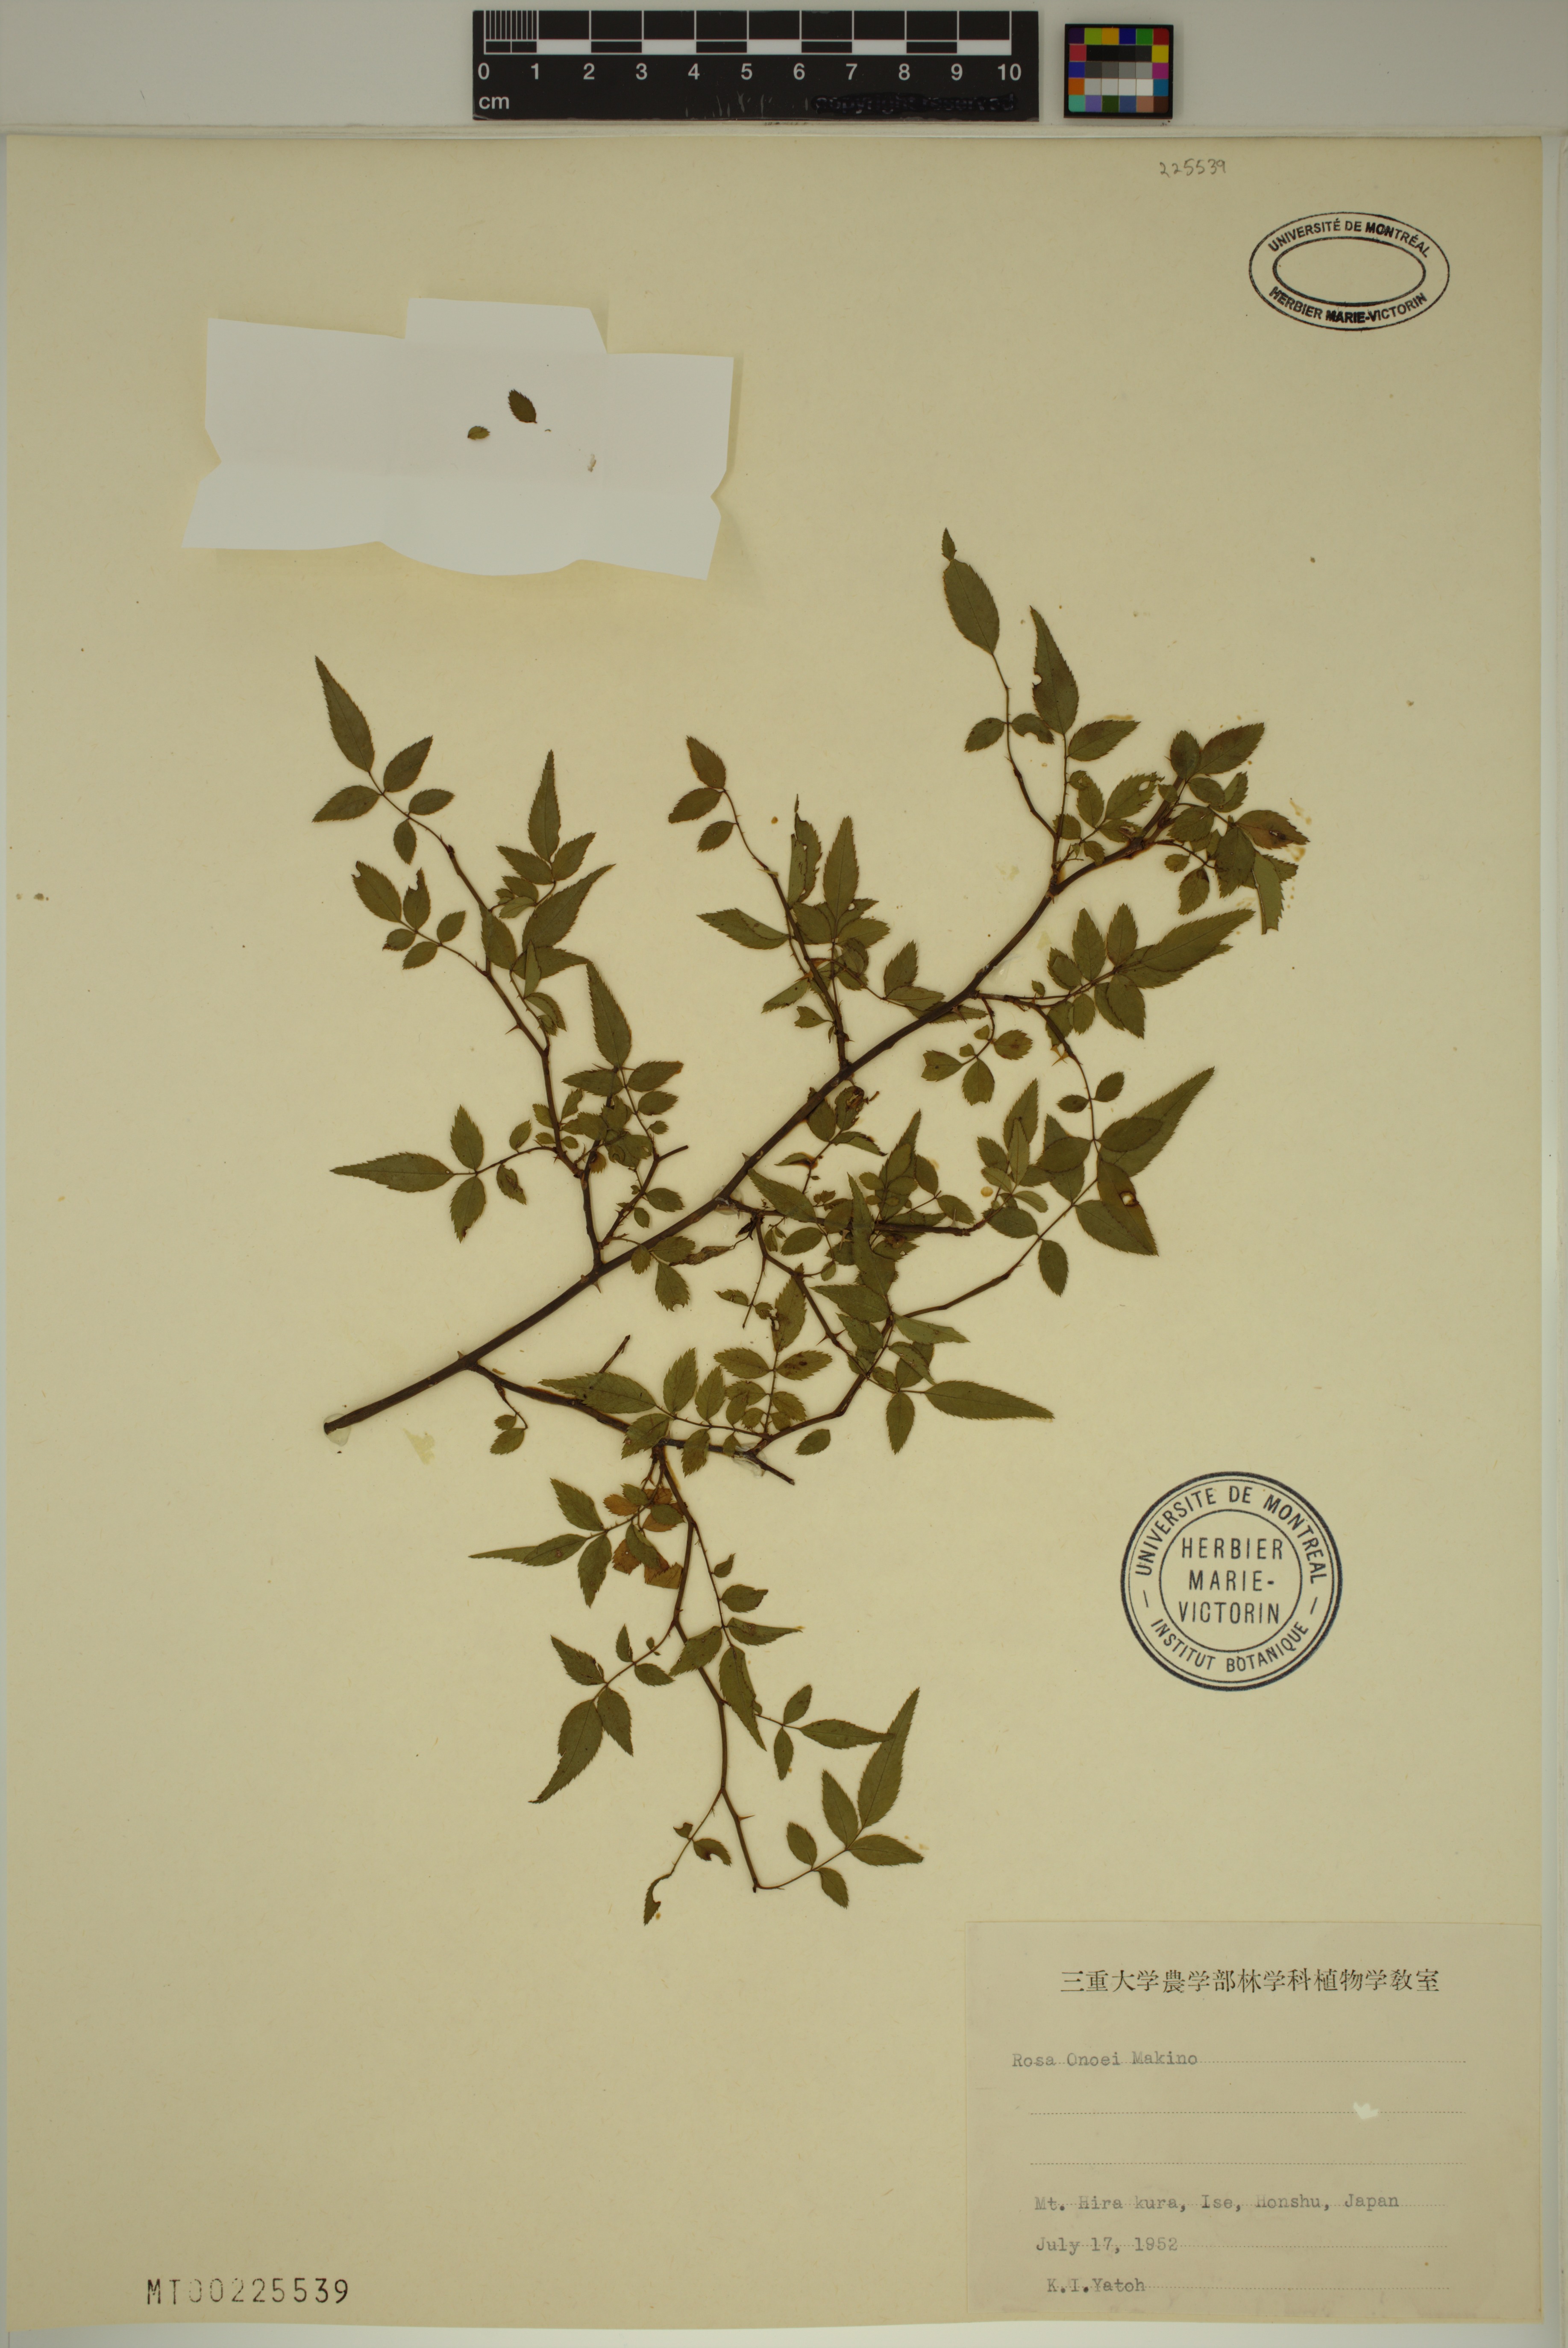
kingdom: Plantae
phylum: Tracheophyta
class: Magnoliopsida
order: Rosales
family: Rosaceae
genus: Rosa
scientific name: Rosa onoei
